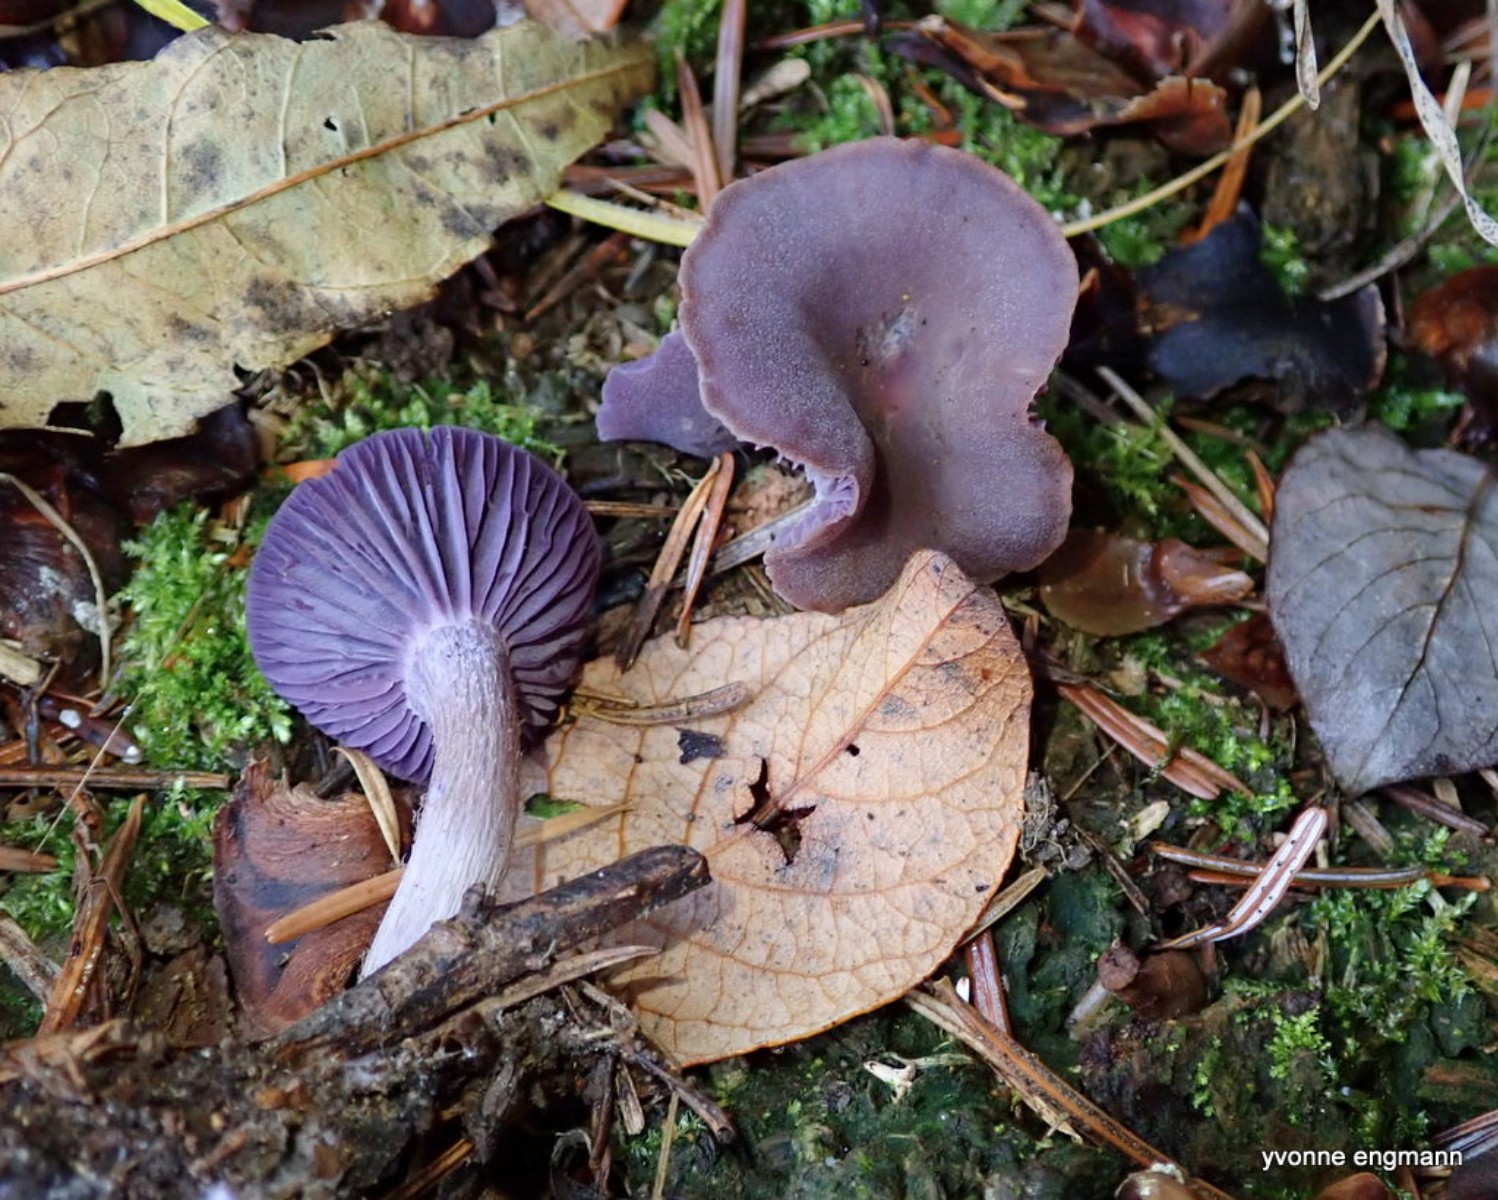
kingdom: Fungi
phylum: Basidiomycota
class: Agaricomycetes
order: Agaricales
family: Hydnangiaceae
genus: Laccaria
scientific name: Laccaria amethystina
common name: violet ametysthat
